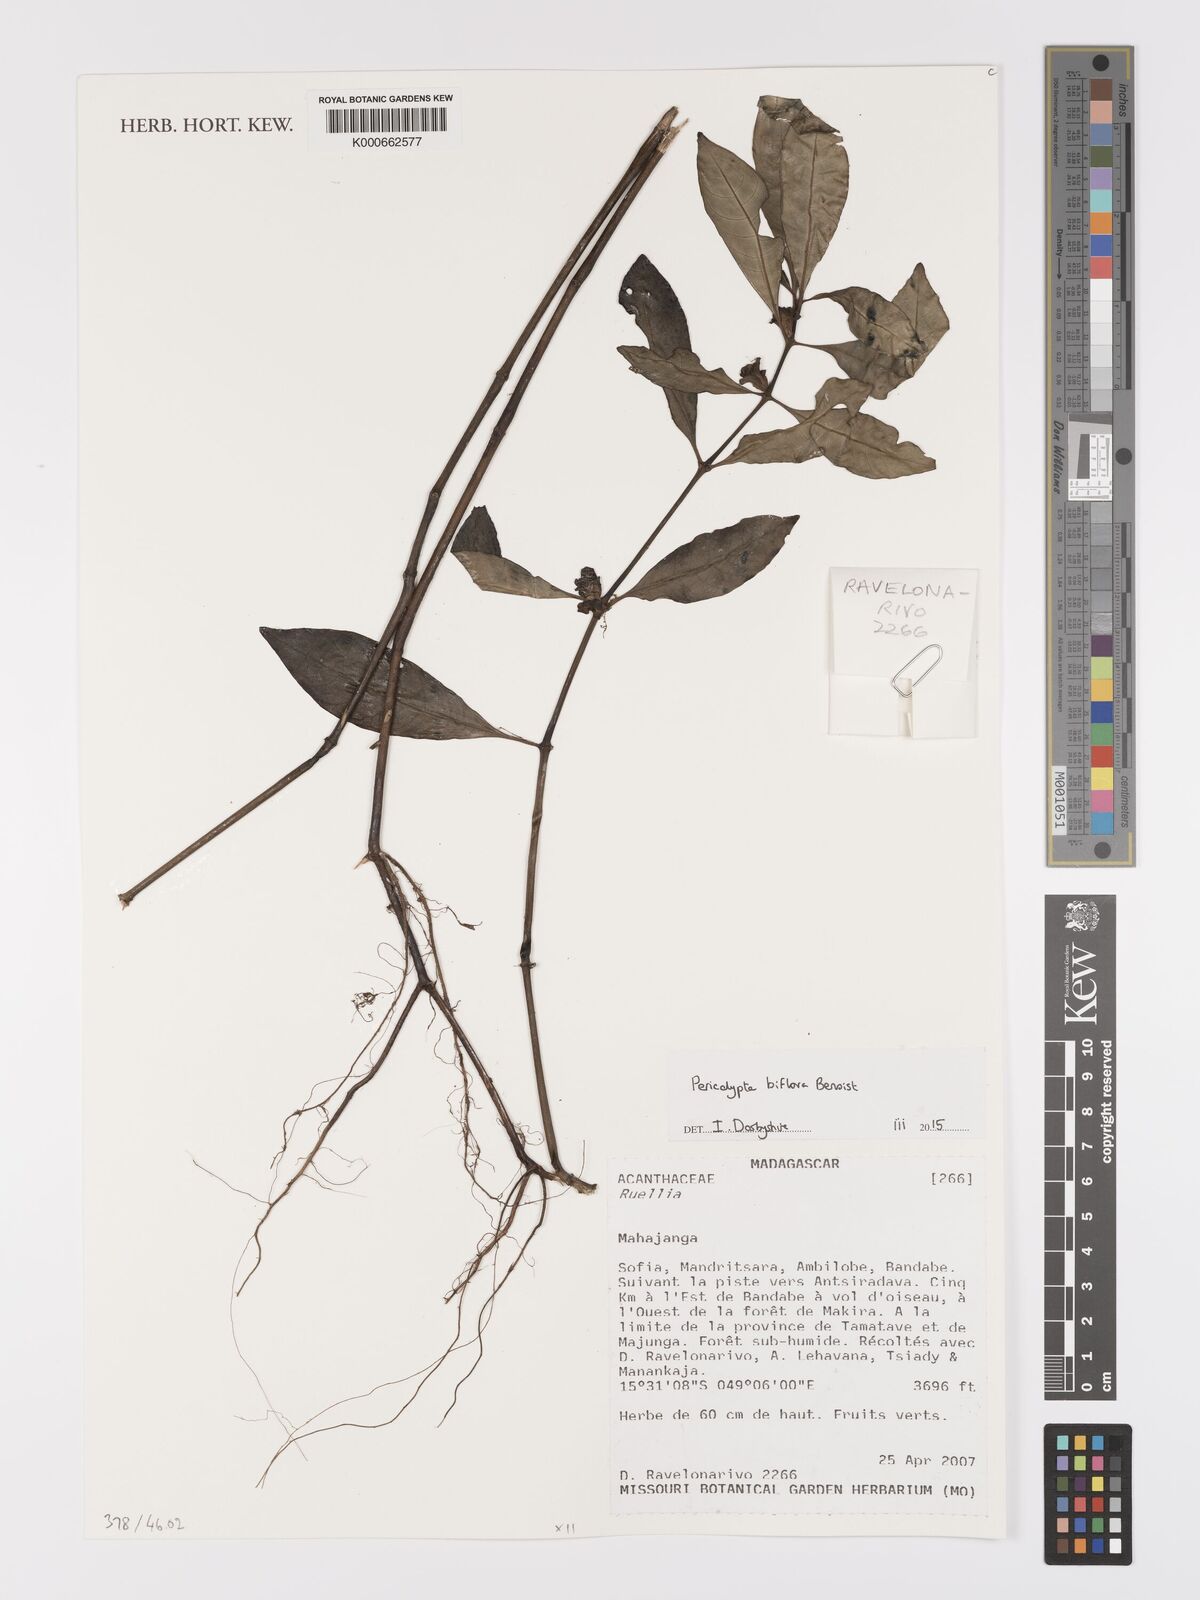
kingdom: Plantae
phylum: Tracheophyta
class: Magnoliopsida
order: Lamiales
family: Acanthaceae
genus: Pericalypta
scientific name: Pericalypta biflora
